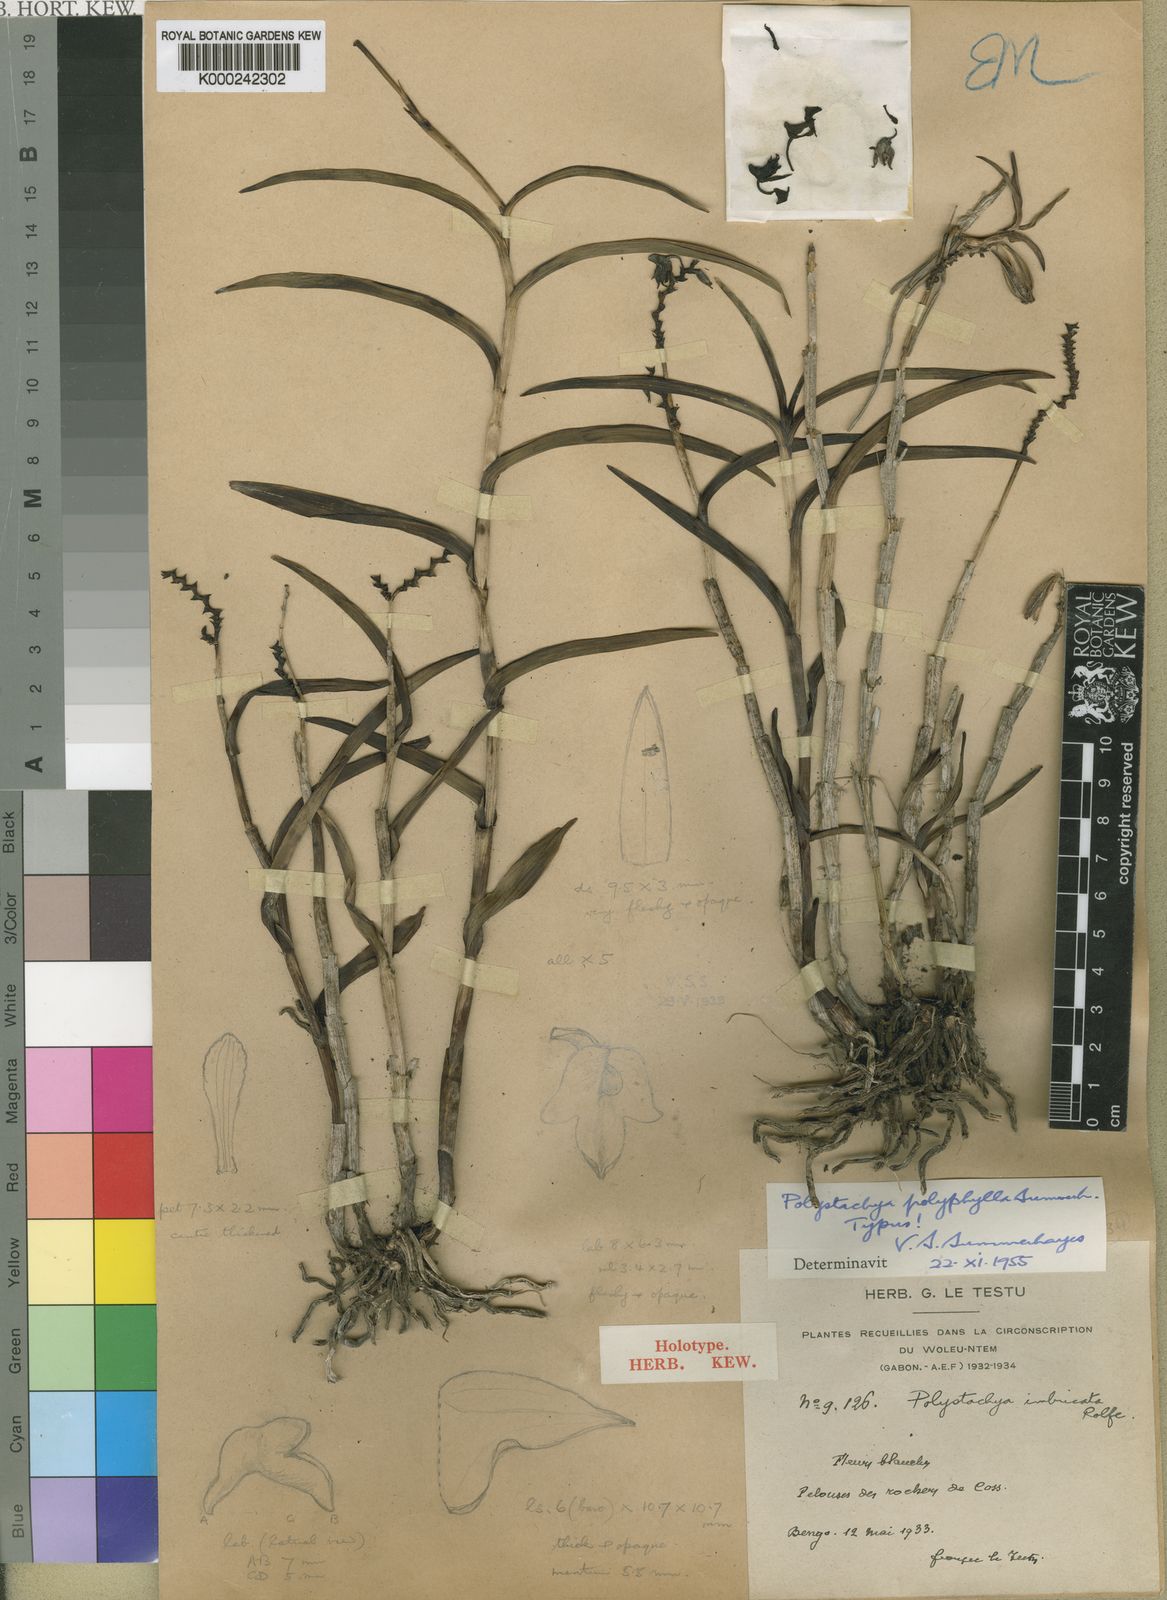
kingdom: Plantae
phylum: Tracheophyta
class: Liliopsida
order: Asparagales
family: Orchidaceae
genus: Polystachya
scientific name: Polystachya albescens
